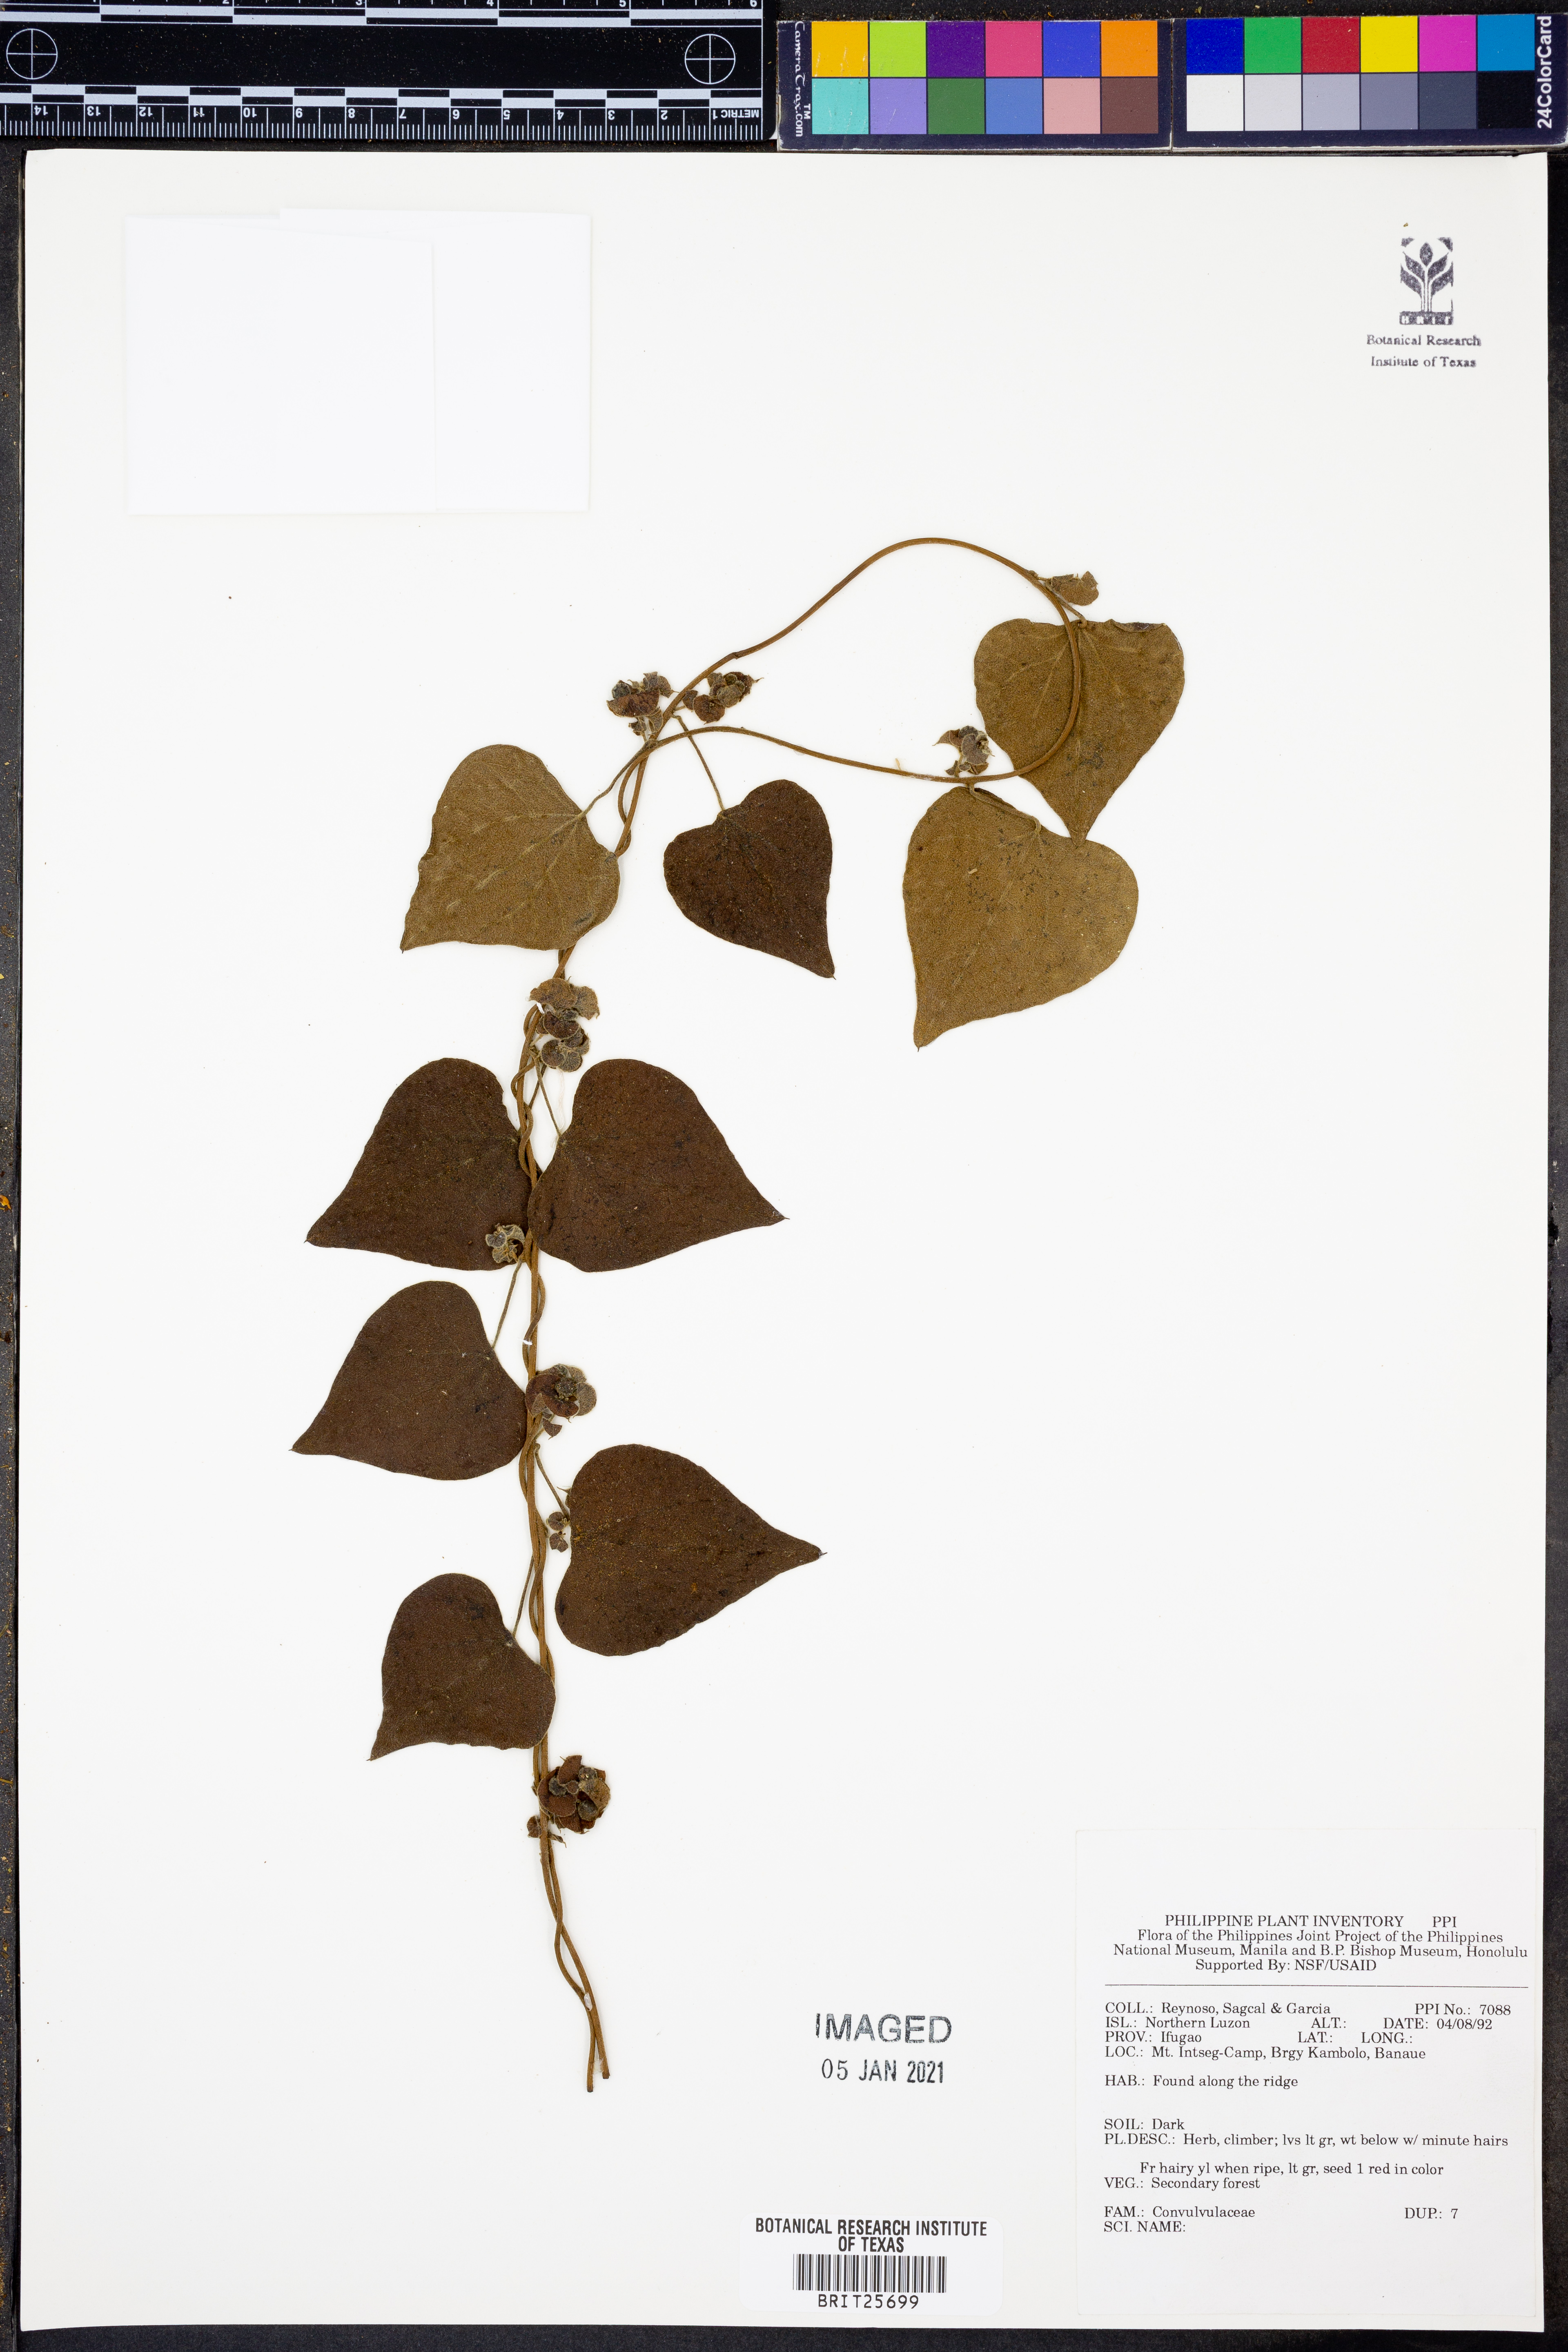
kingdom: Plantae
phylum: Tracheophyta
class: Magnoliopsida
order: Solanales
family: Convolvulaceae
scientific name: Convolvulaceae
